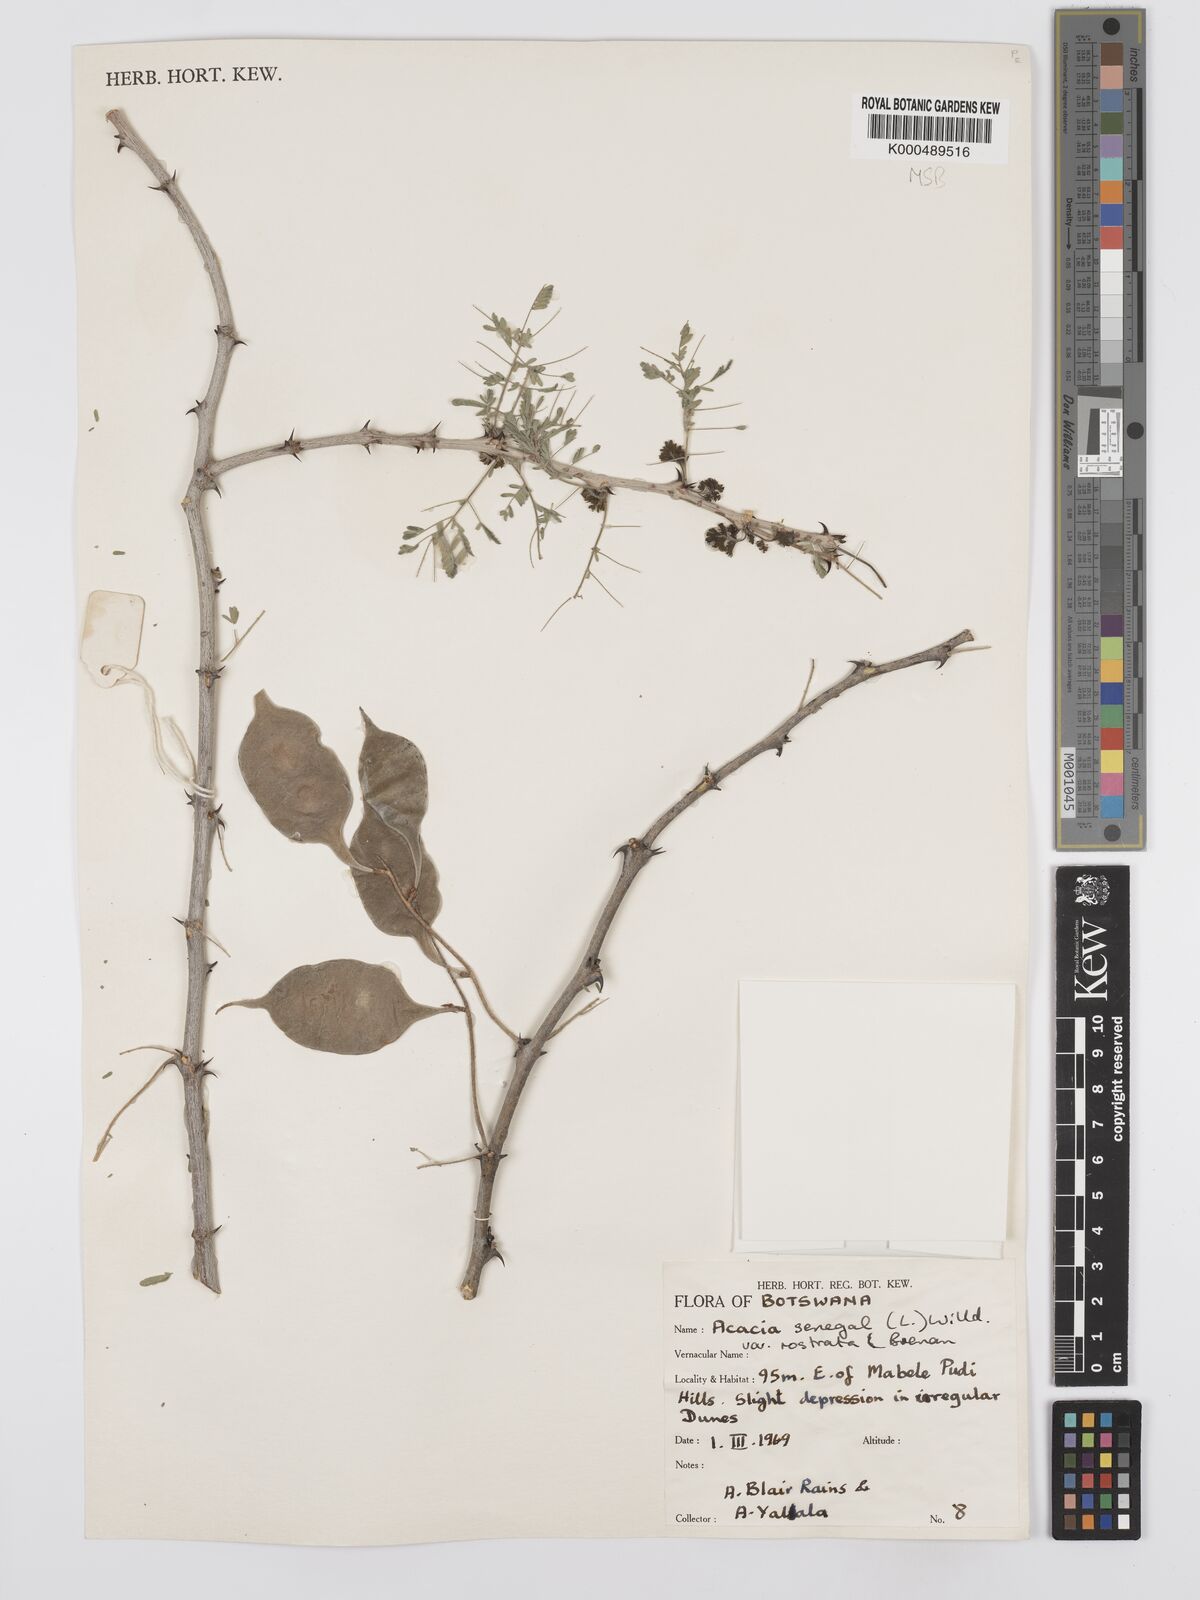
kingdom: Plantae
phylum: Tracheophyta
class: Magnoliopsida
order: Fabales
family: Fabaceae
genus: Senegalia
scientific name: Senegalia senegal
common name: Senegal-gum
